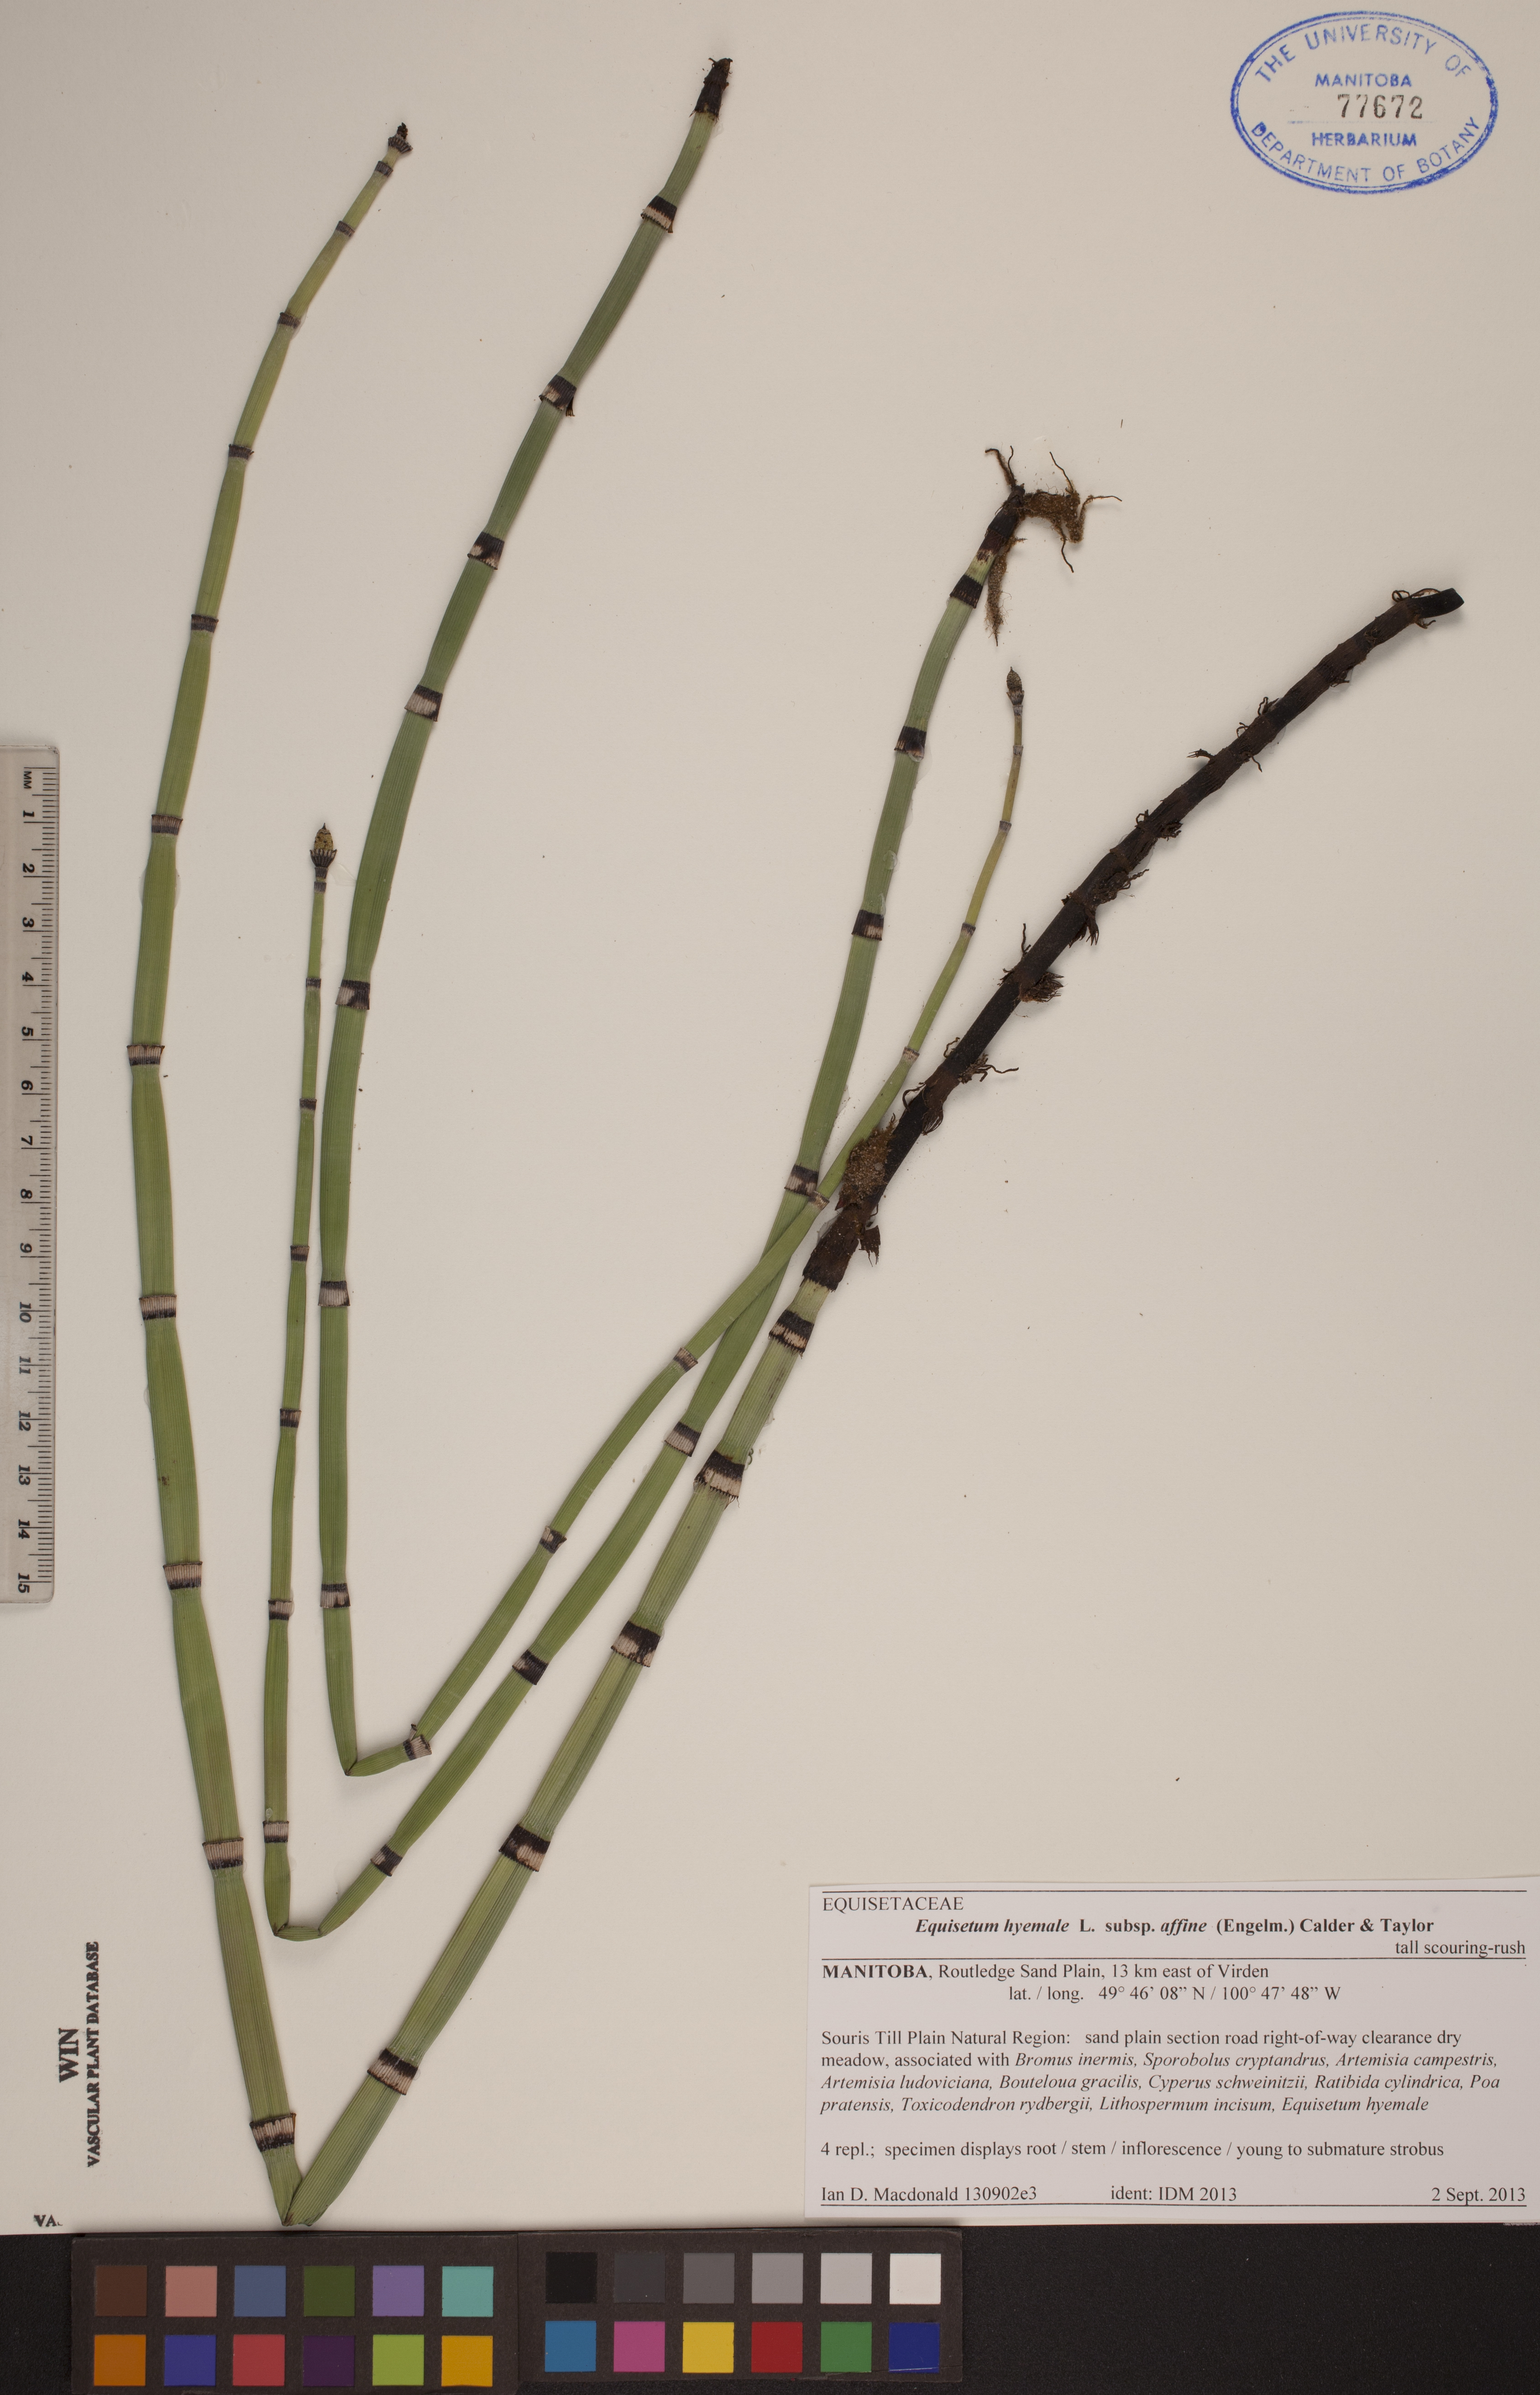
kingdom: Plantae
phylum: Tracheophyta
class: Polypodiopsida
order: Equisetales
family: Equisetaceae
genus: Equisetum
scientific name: Equisetum praealtum
